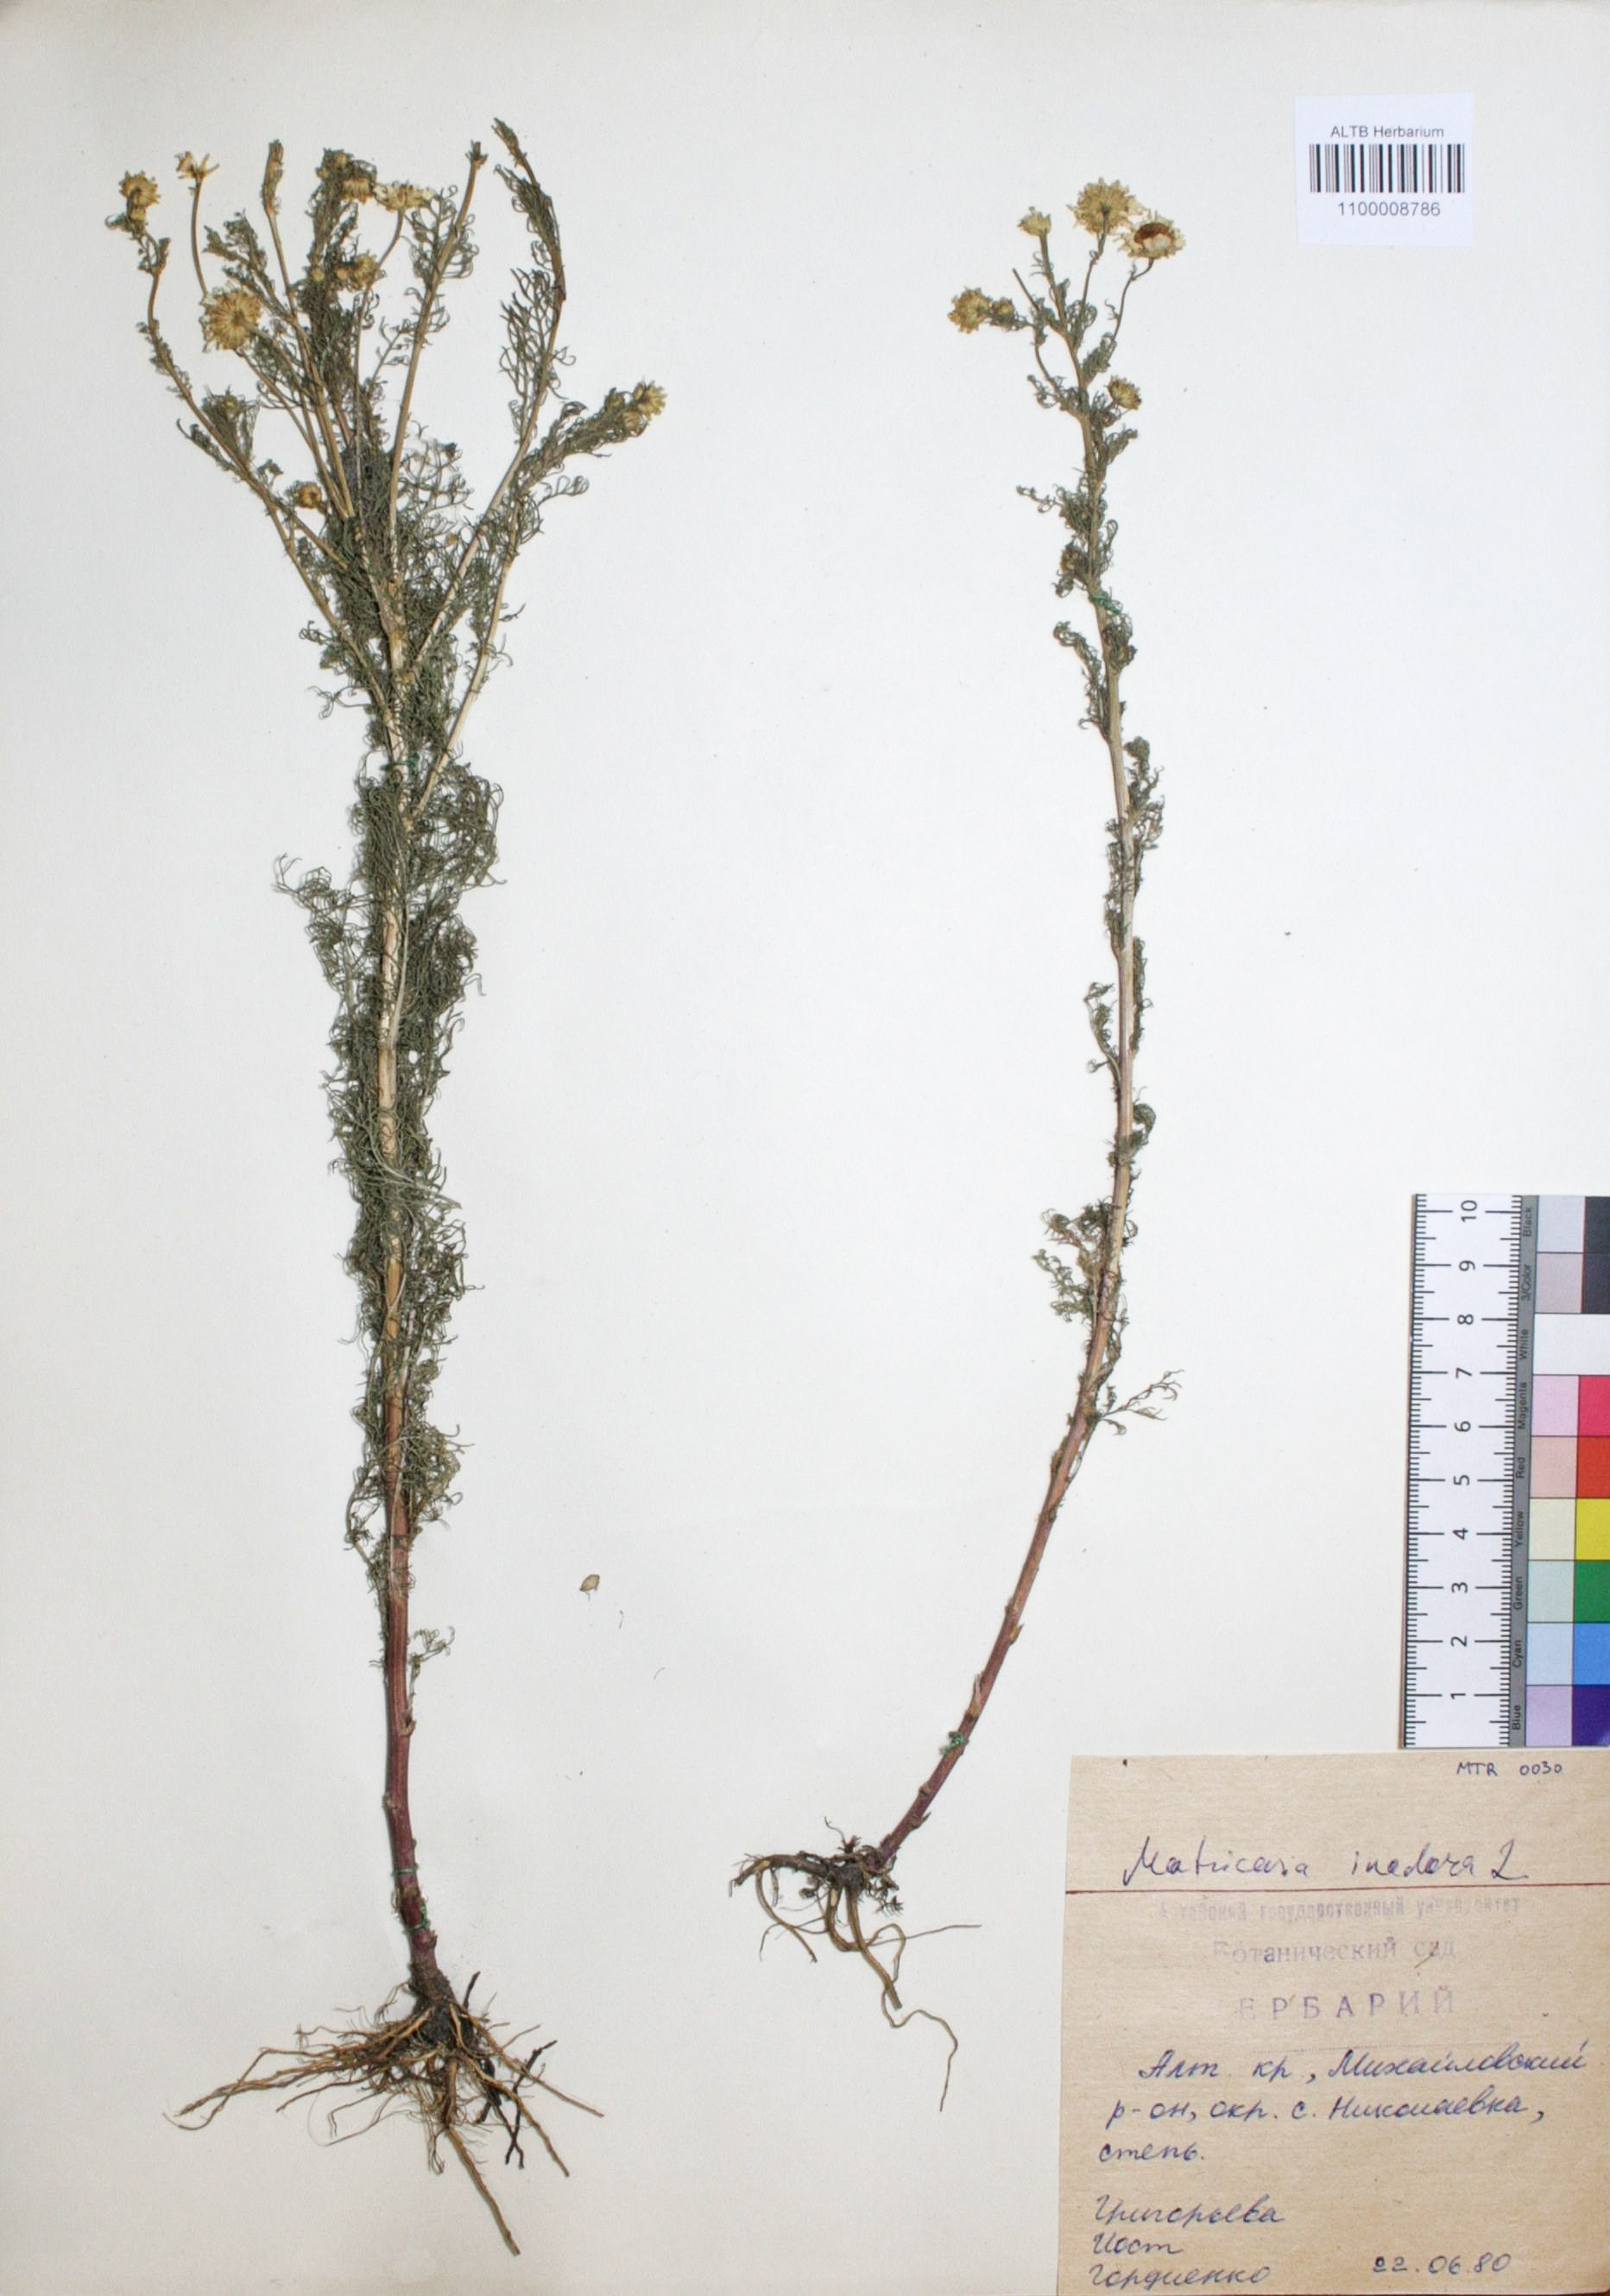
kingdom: Plantae
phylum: Tracheophyta
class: Magnoliopsida
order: Asterales
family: Asteraceae
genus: Tripleurospermum
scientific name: Tripleurospermum inodorum
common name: Scentless mayweed
